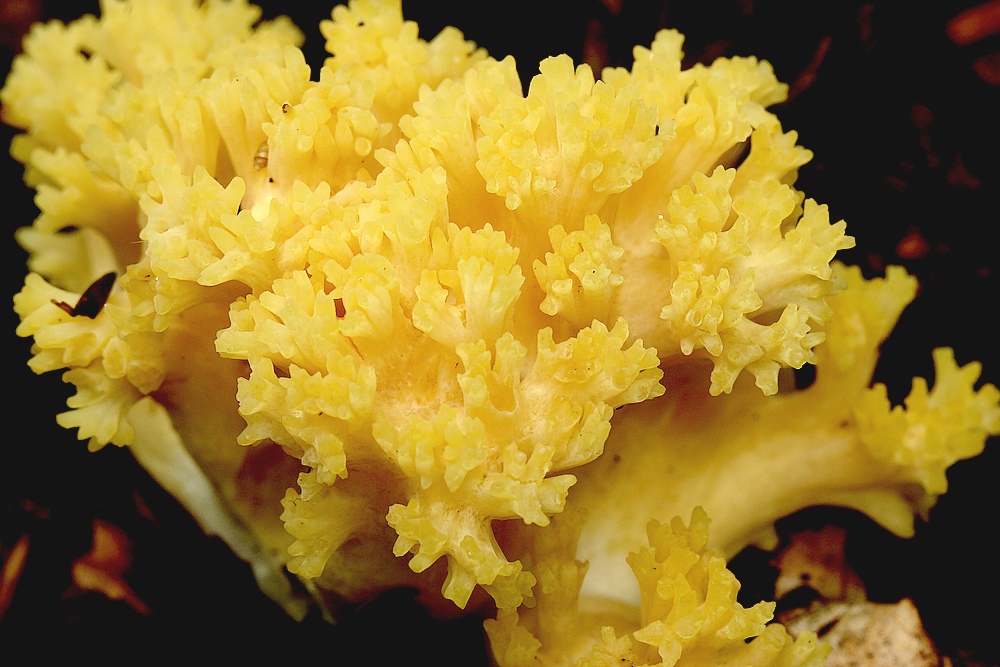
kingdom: Fungi
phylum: Basidiomycota
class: Agaricomycetes
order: Gomphales
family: Gomphaceae
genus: Ramaria
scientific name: Ramaria krieglsteineri
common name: smalsporet koralsvamp
